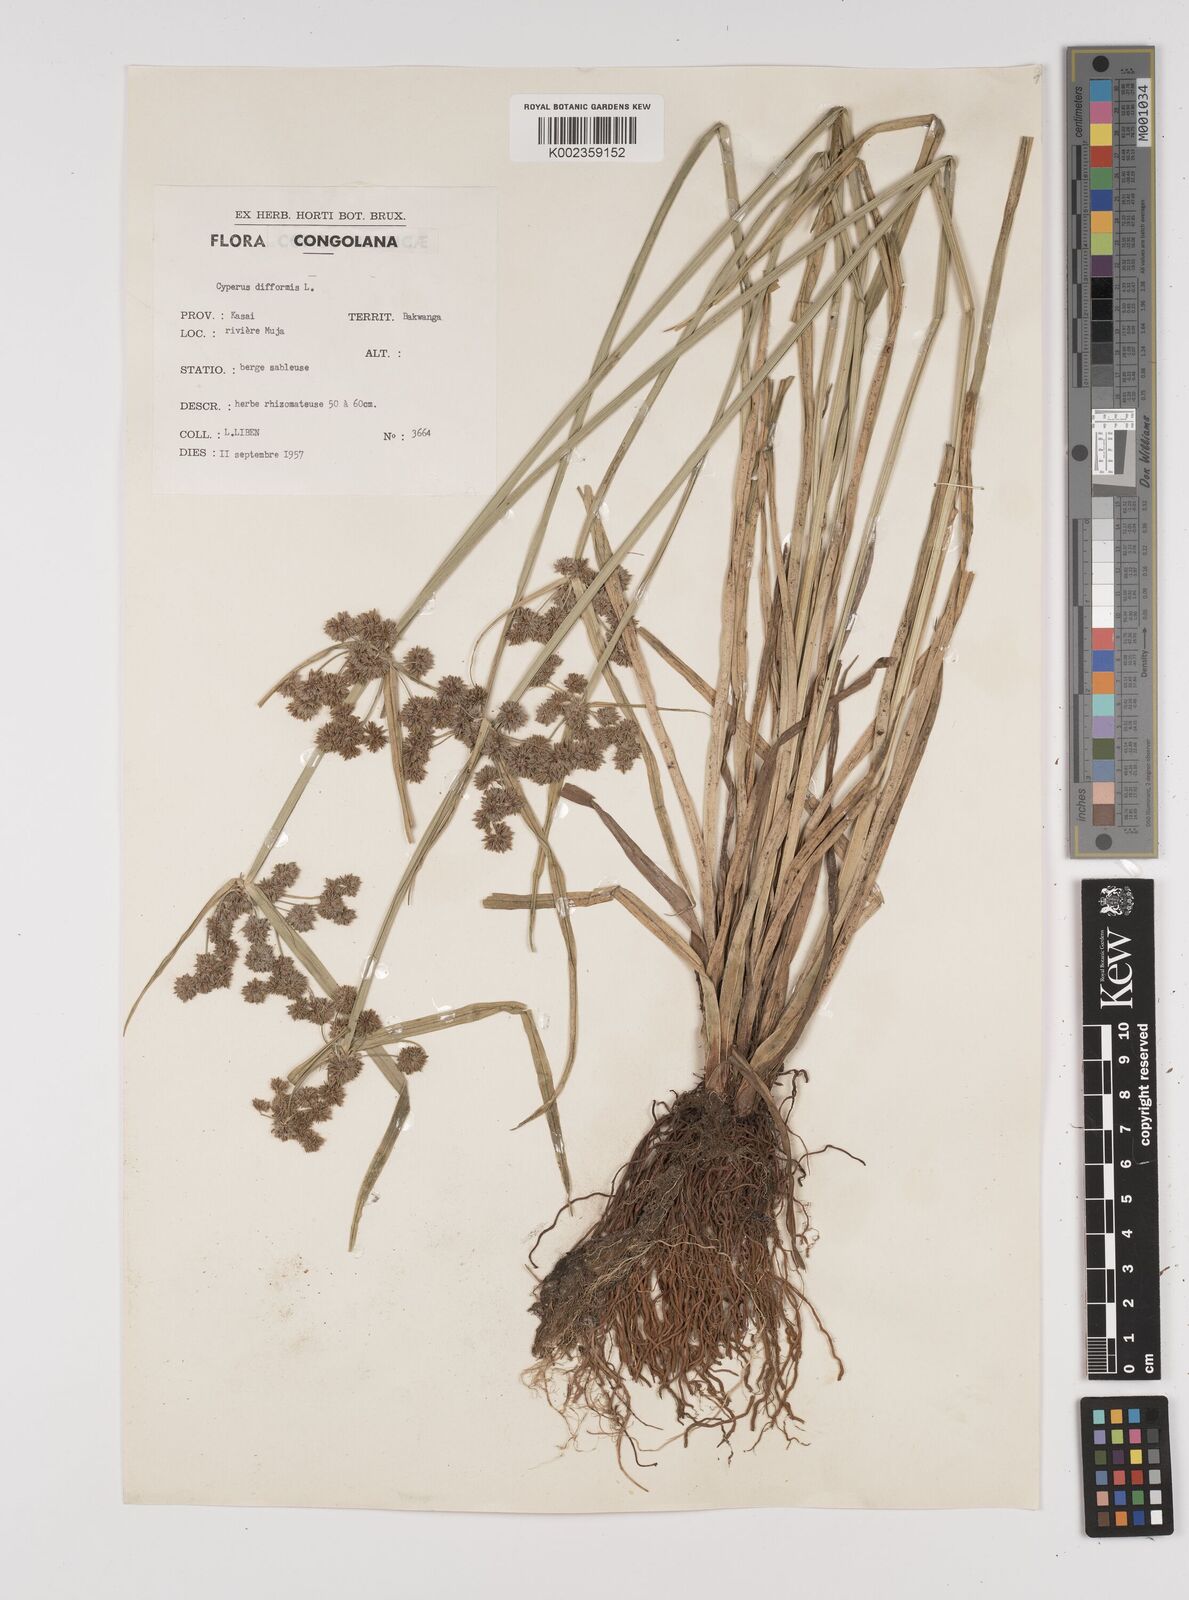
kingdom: Plantae
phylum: Tracheophyta
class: Liliopsida
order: Poales
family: Cyperaceae
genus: Cyperus
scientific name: Cyperus difformis
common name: Variable flatsedge
